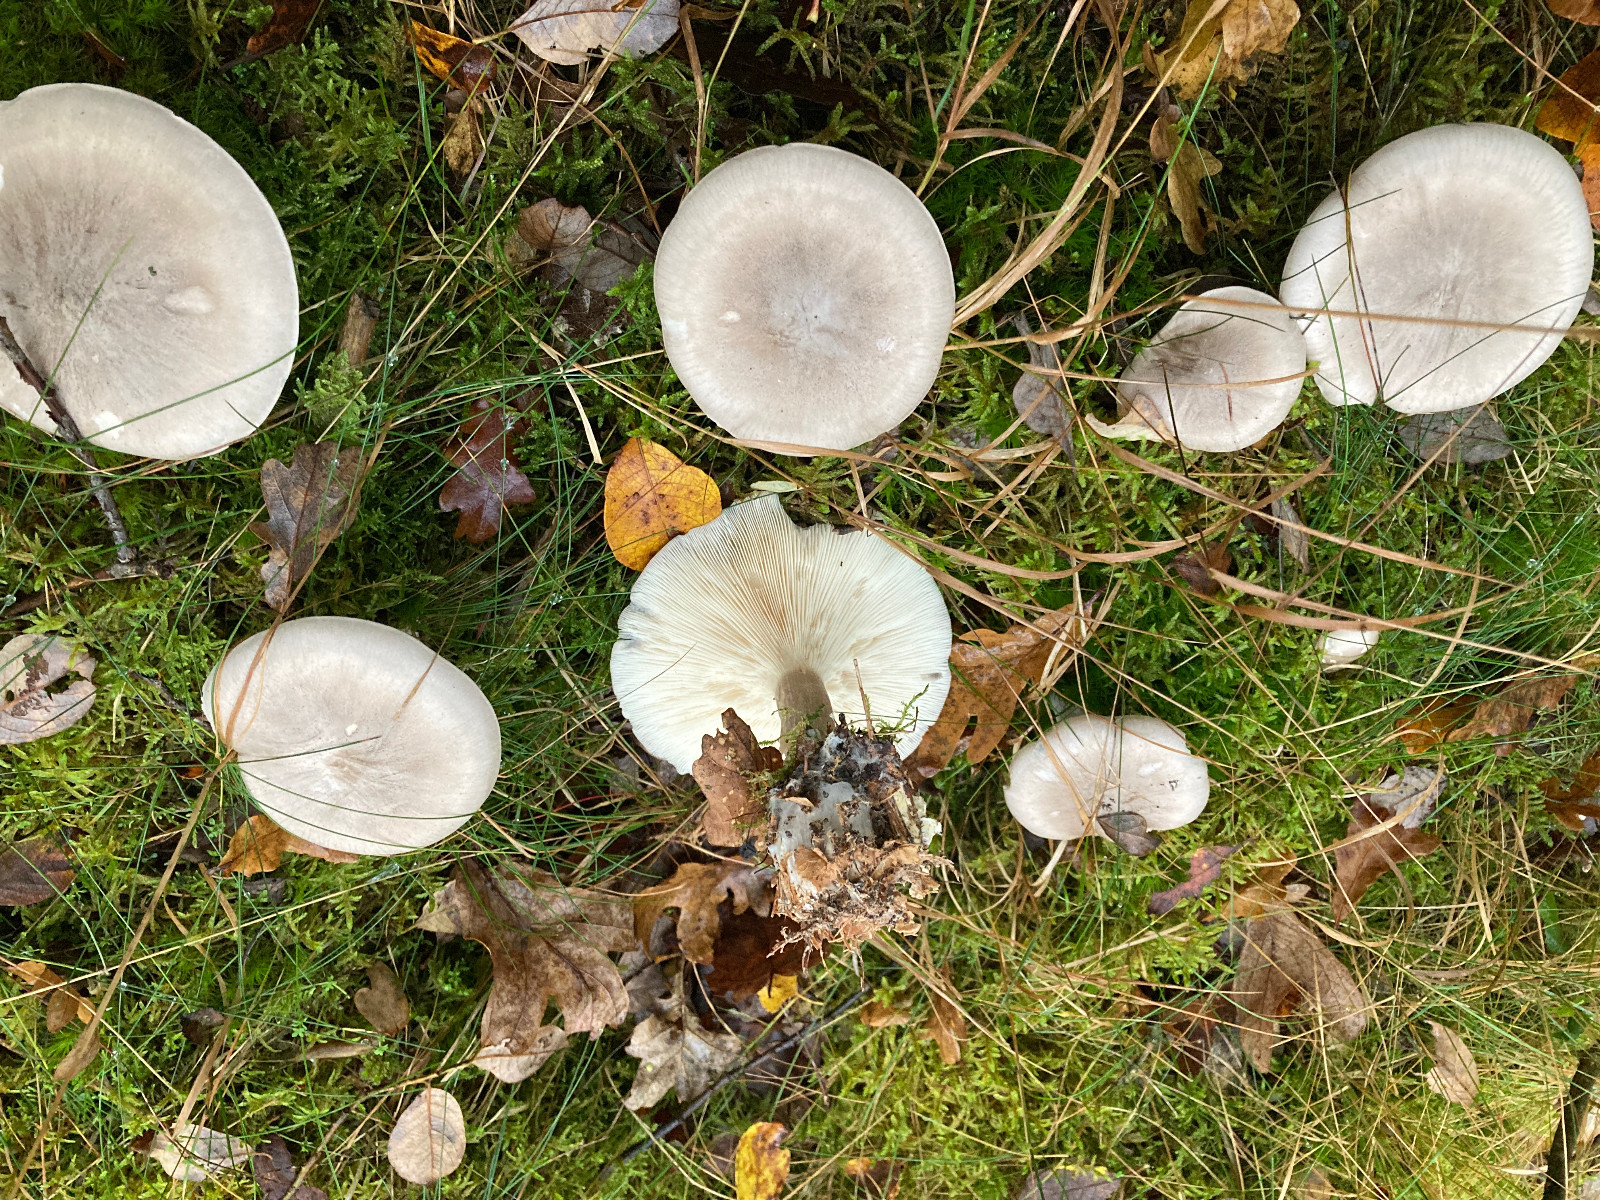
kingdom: Fungi
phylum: Basidiomycota
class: Agaricomycetes
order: Agaricales
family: Tricholomataceae
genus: Clitocybe
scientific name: Clitocybe nebularis
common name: tåge-tragthat
